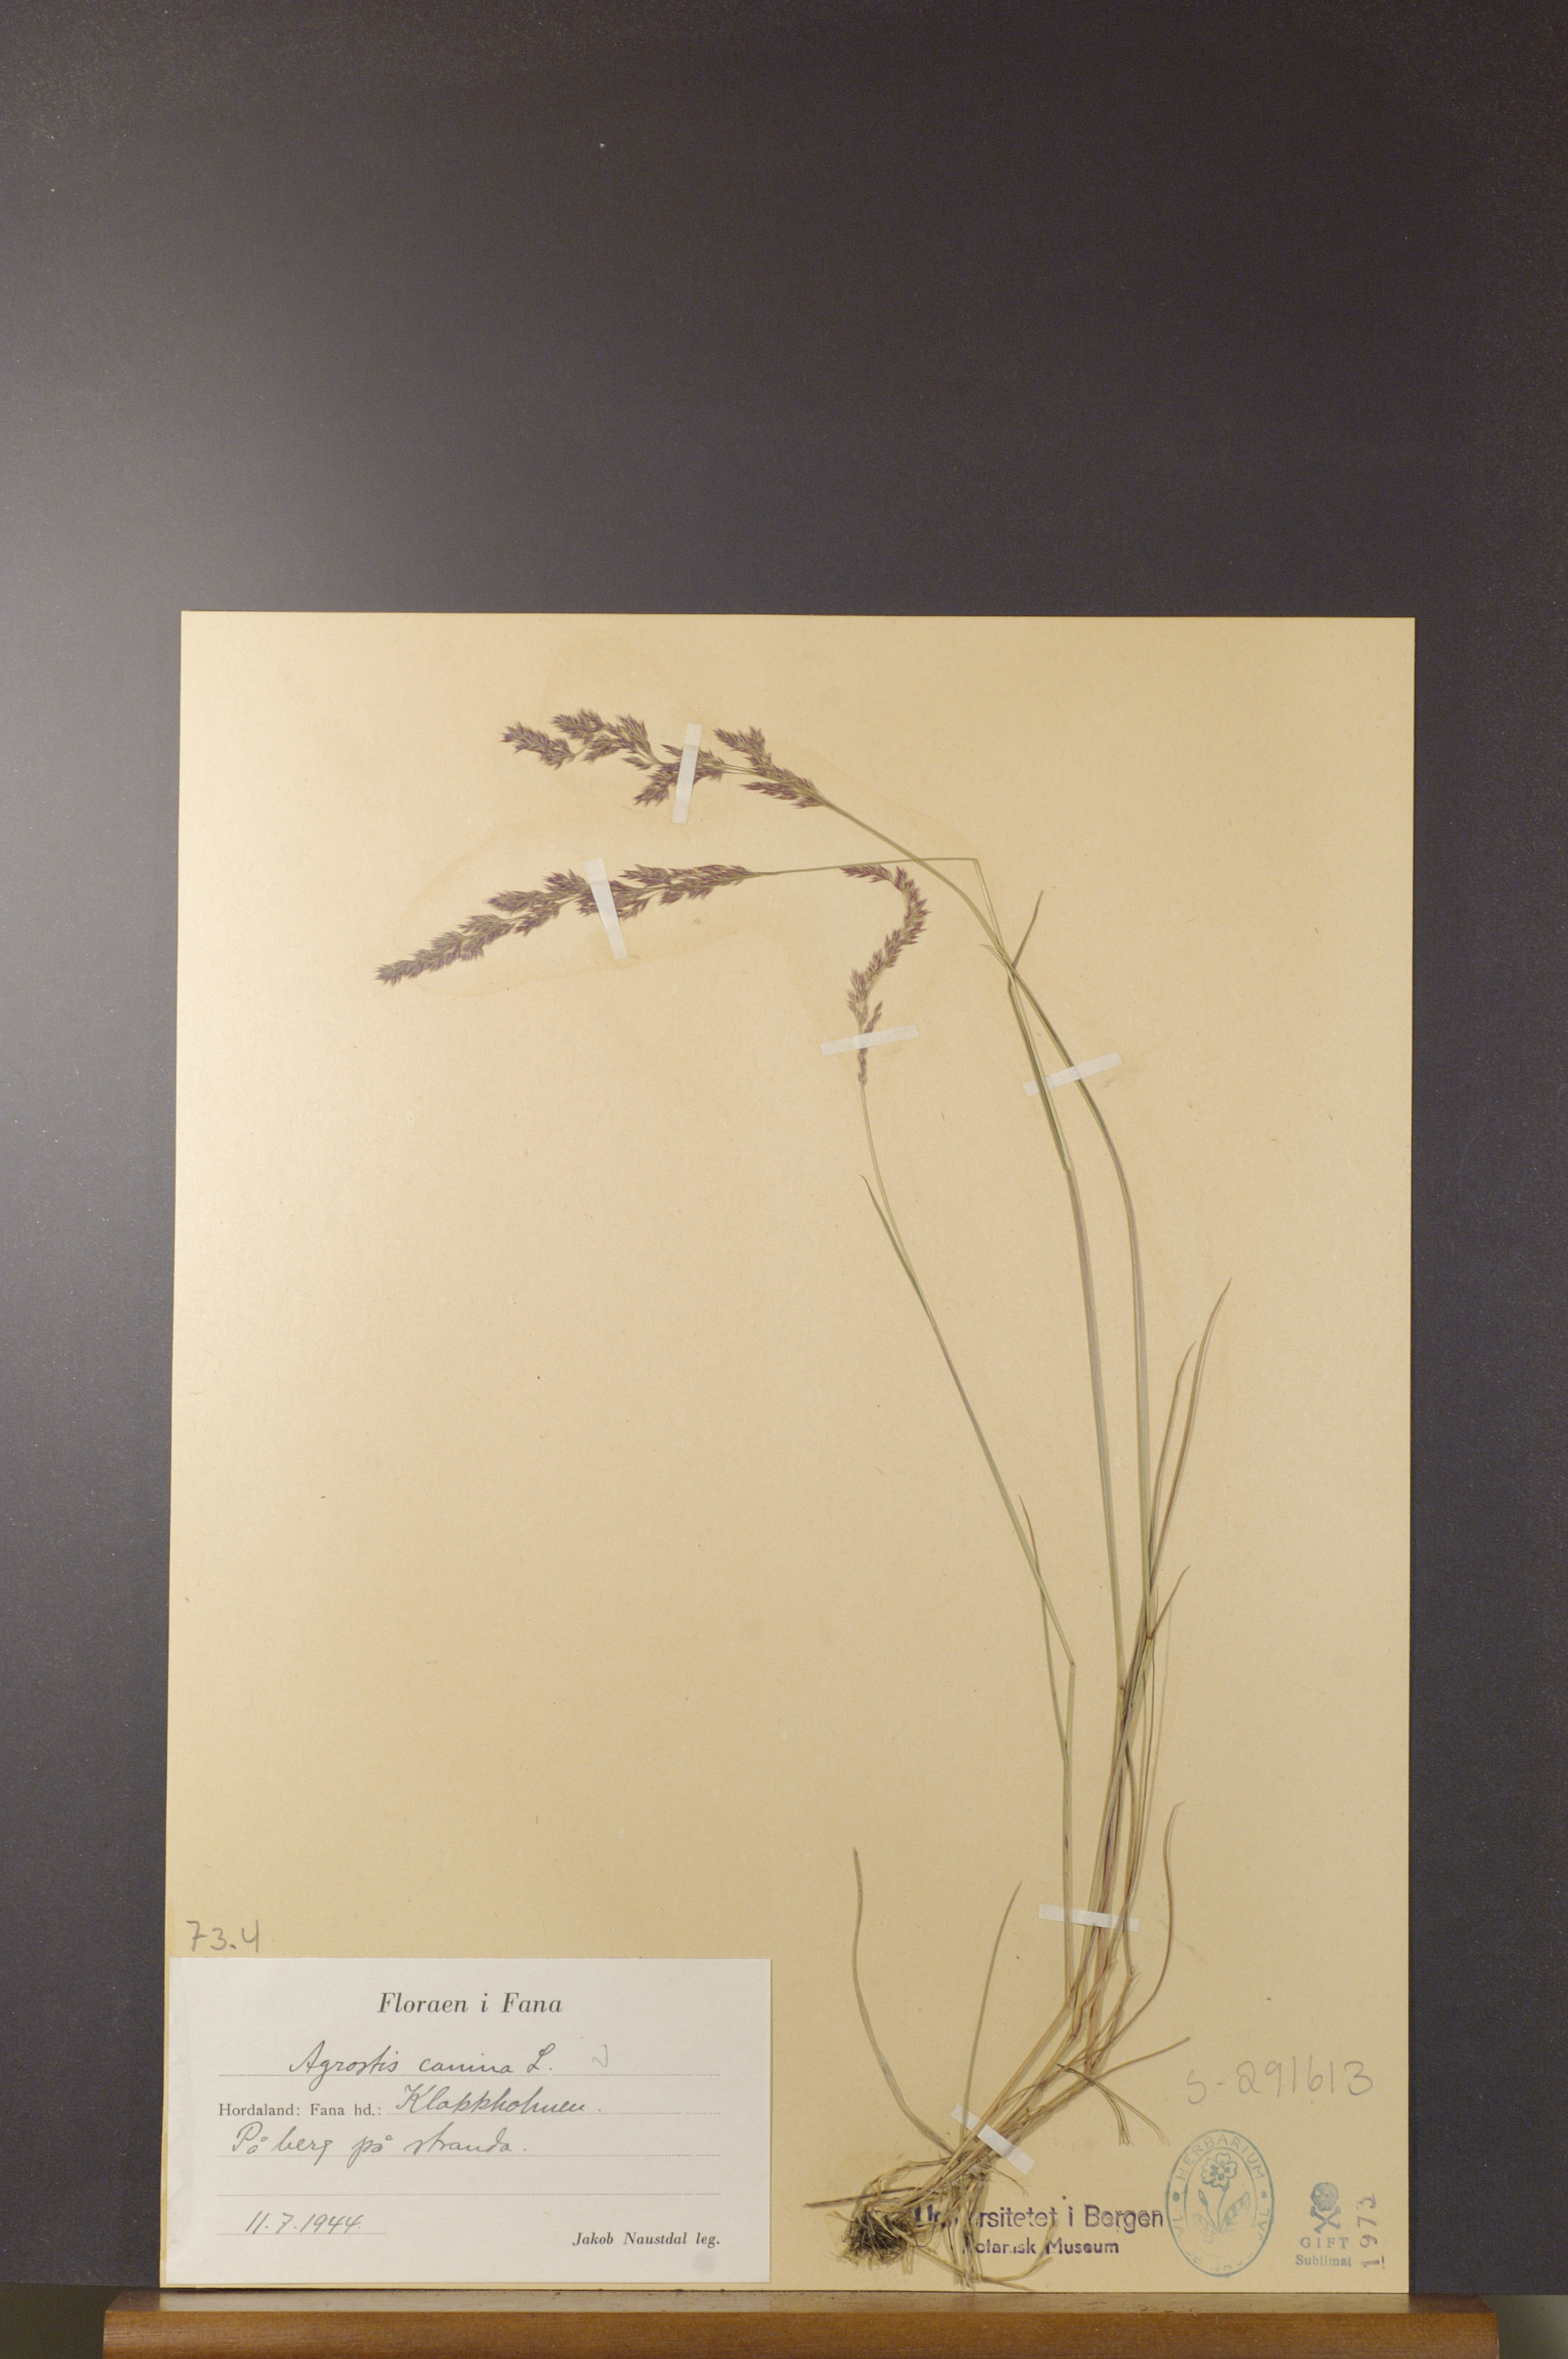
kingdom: Plantae
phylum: Tracheophyta
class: Liliopsida
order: Poales
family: Poaceae
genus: Agrostis
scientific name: Agrostis canina
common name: Velvet bent
